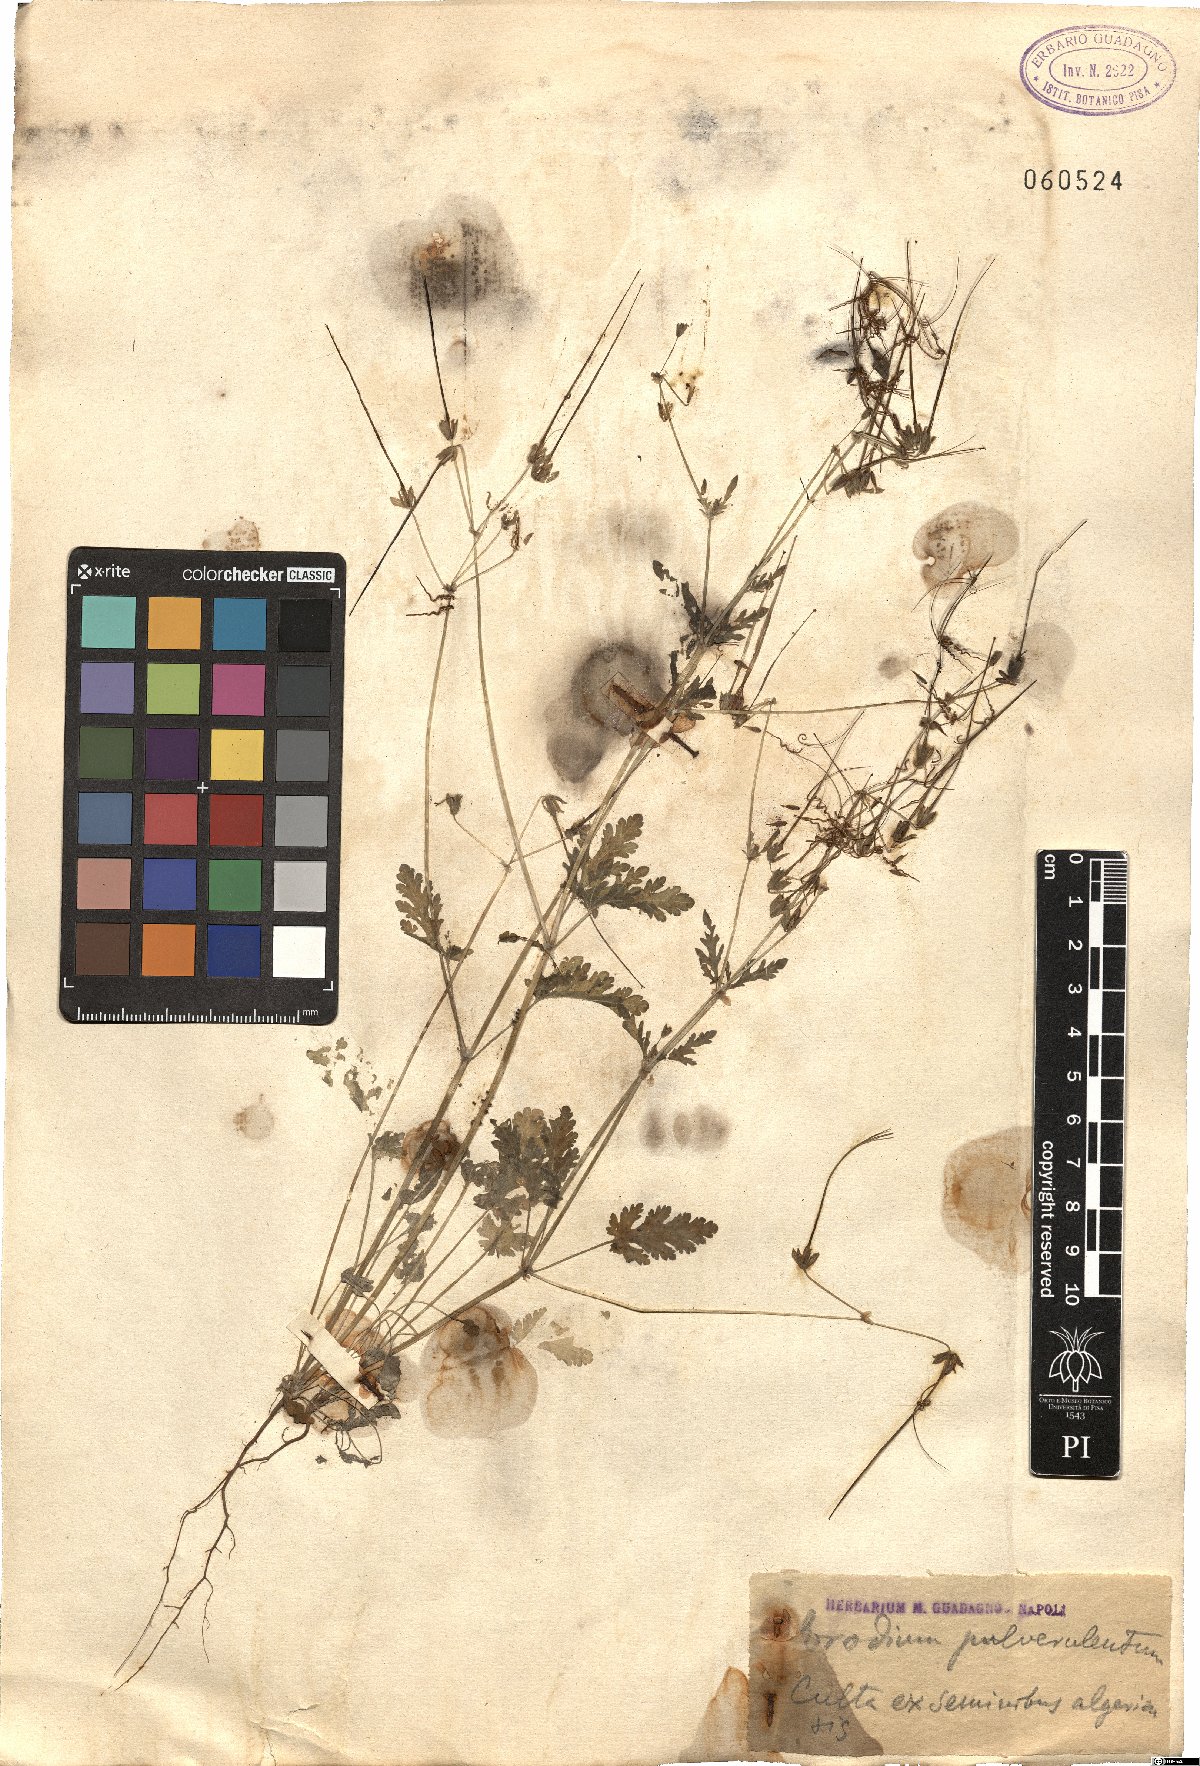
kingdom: Plantae
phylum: Tracheophyta
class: Magnoliopsida
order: Geraniales
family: Geraniaceae
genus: Erodium
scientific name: Erodium laciniatum
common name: Cutleaf stork's bill
